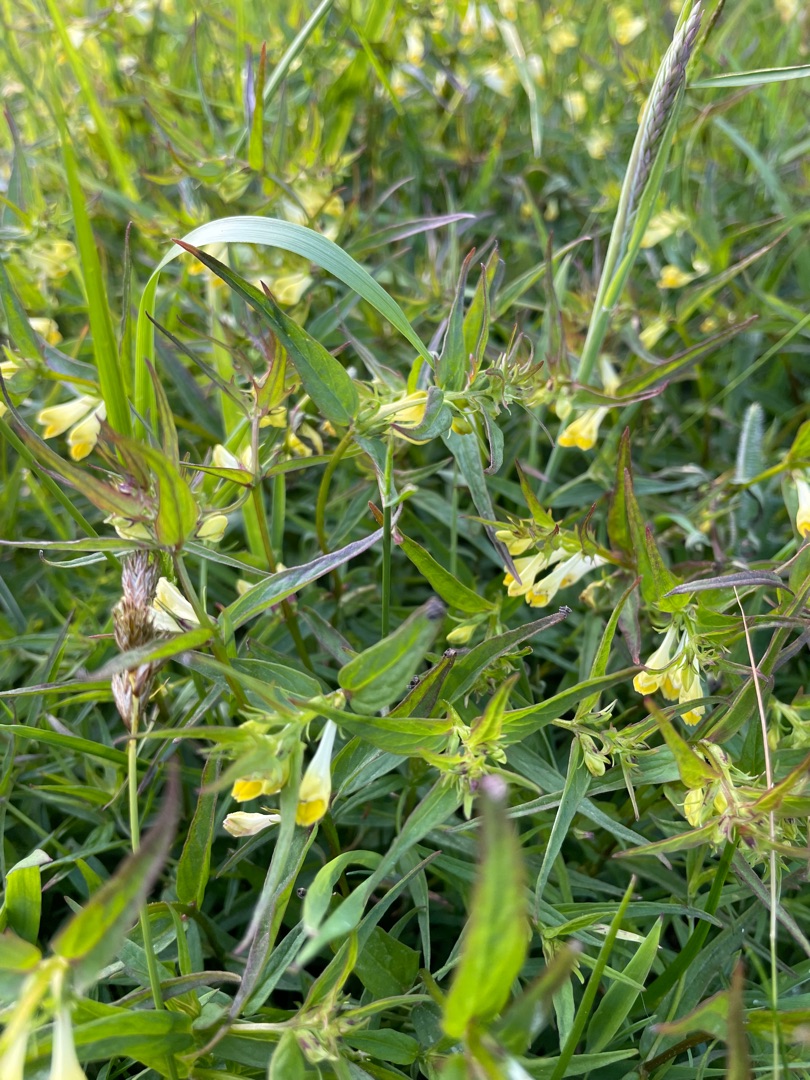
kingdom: Plantae
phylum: Tracheophyta
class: Magnoliopsida
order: Lamiales
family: Orobanchaceae
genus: Melampyrum
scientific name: Melampyrum pratense
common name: Almindelig kohvede
